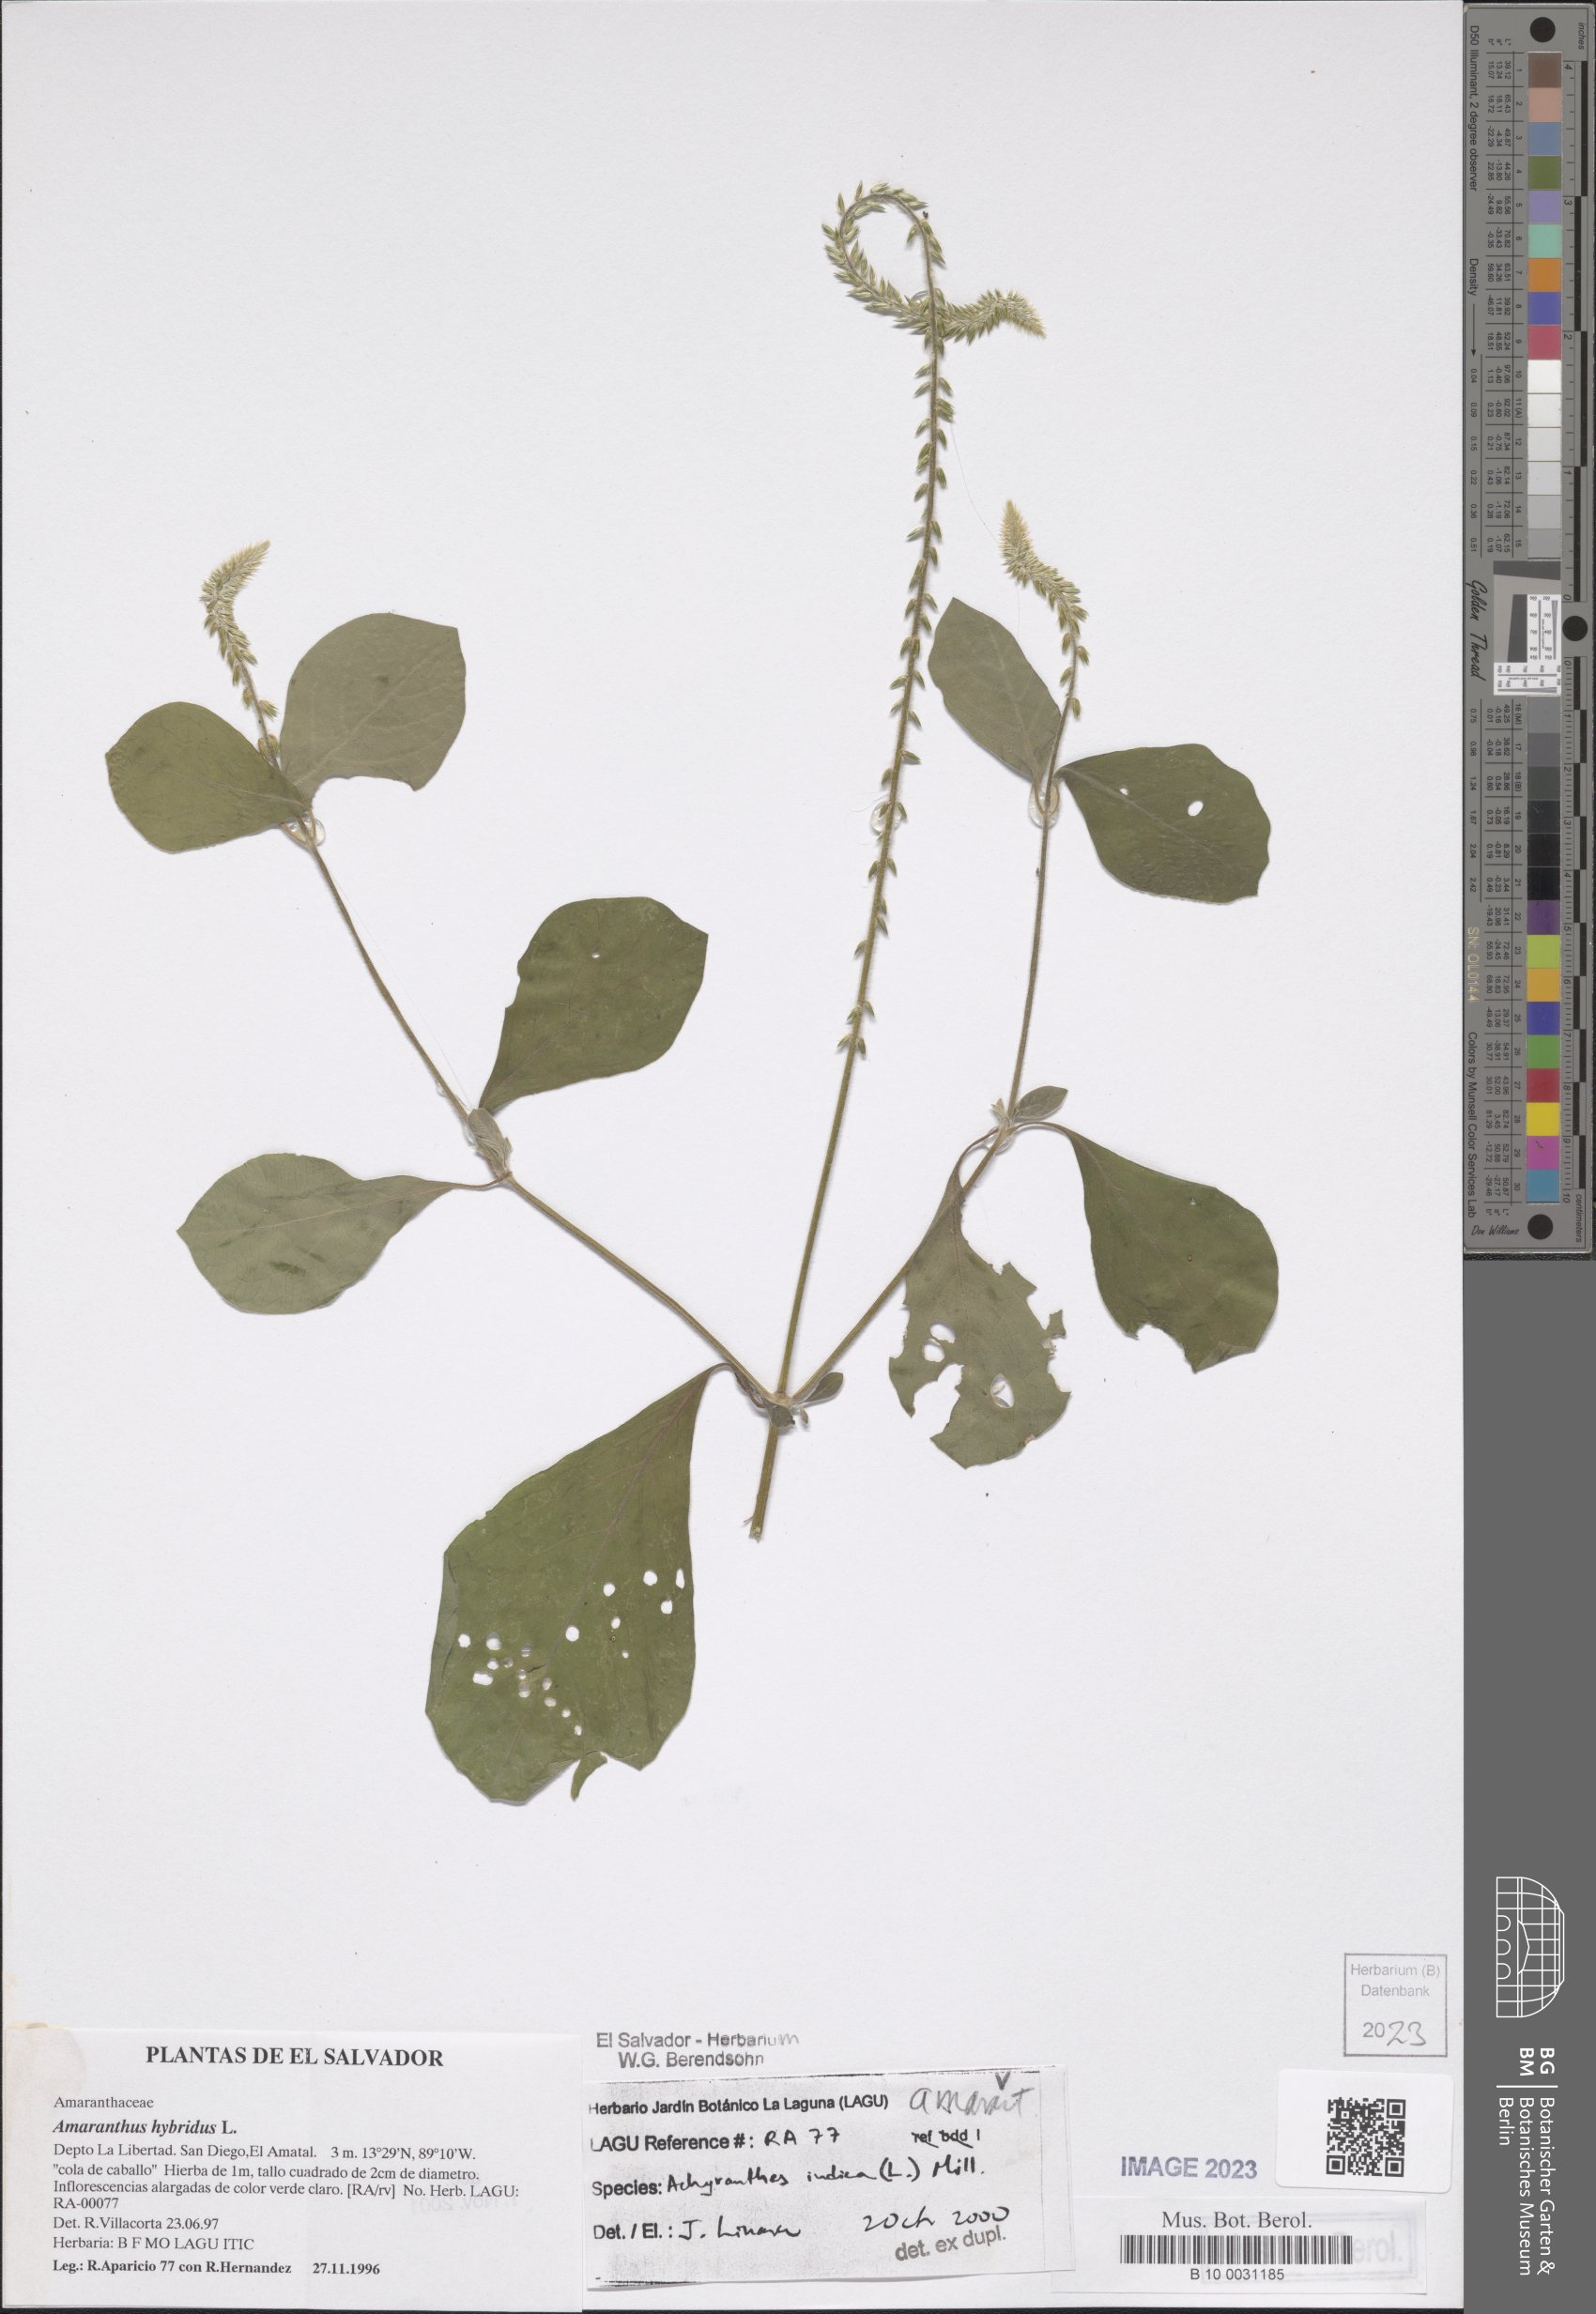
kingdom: Plantae
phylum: Tracheophyta
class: Magnoliopsida
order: Caryophyllales
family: Amaranthaceae
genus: Achyranthes
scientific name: Achyranthes aspera
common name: Devil's horsewhip
